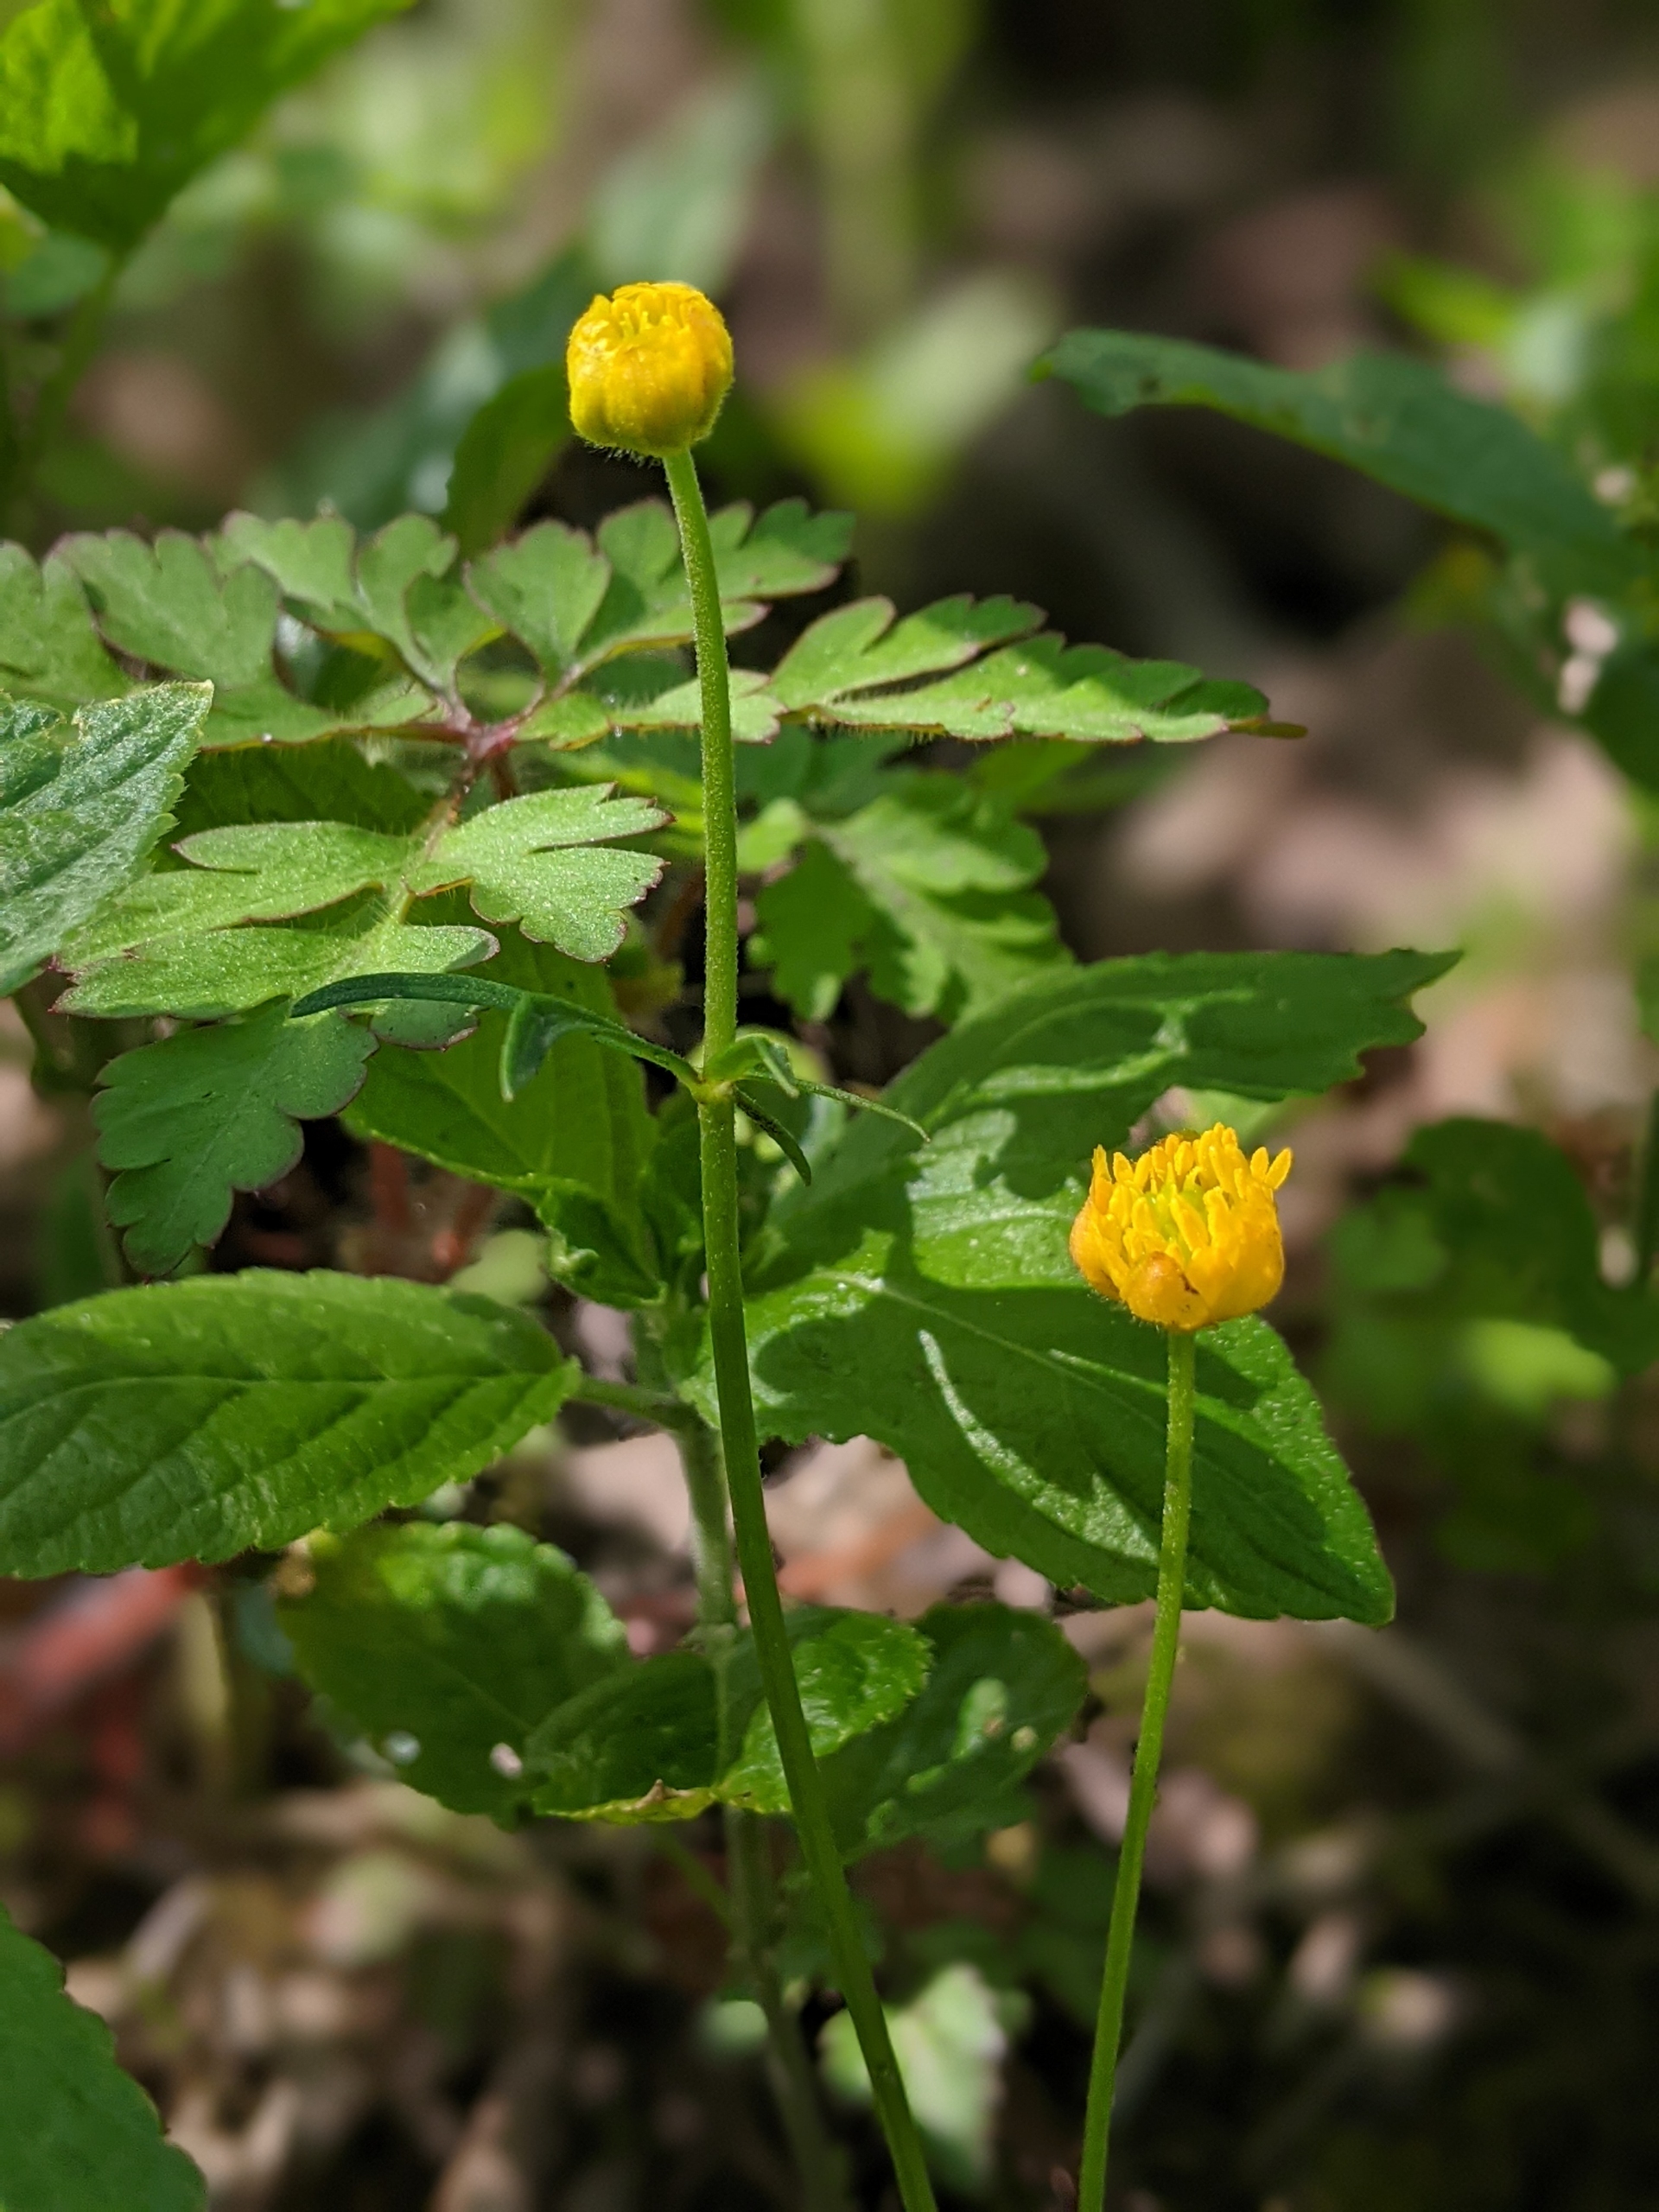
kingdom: Plantae
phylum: Tracheophyta
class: Magnoliopsida
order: Ranunculales
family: Ranunculaceae
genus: Ranunculus
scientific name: Ranunculus auricomus
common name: Nyrebladet ranunkel
